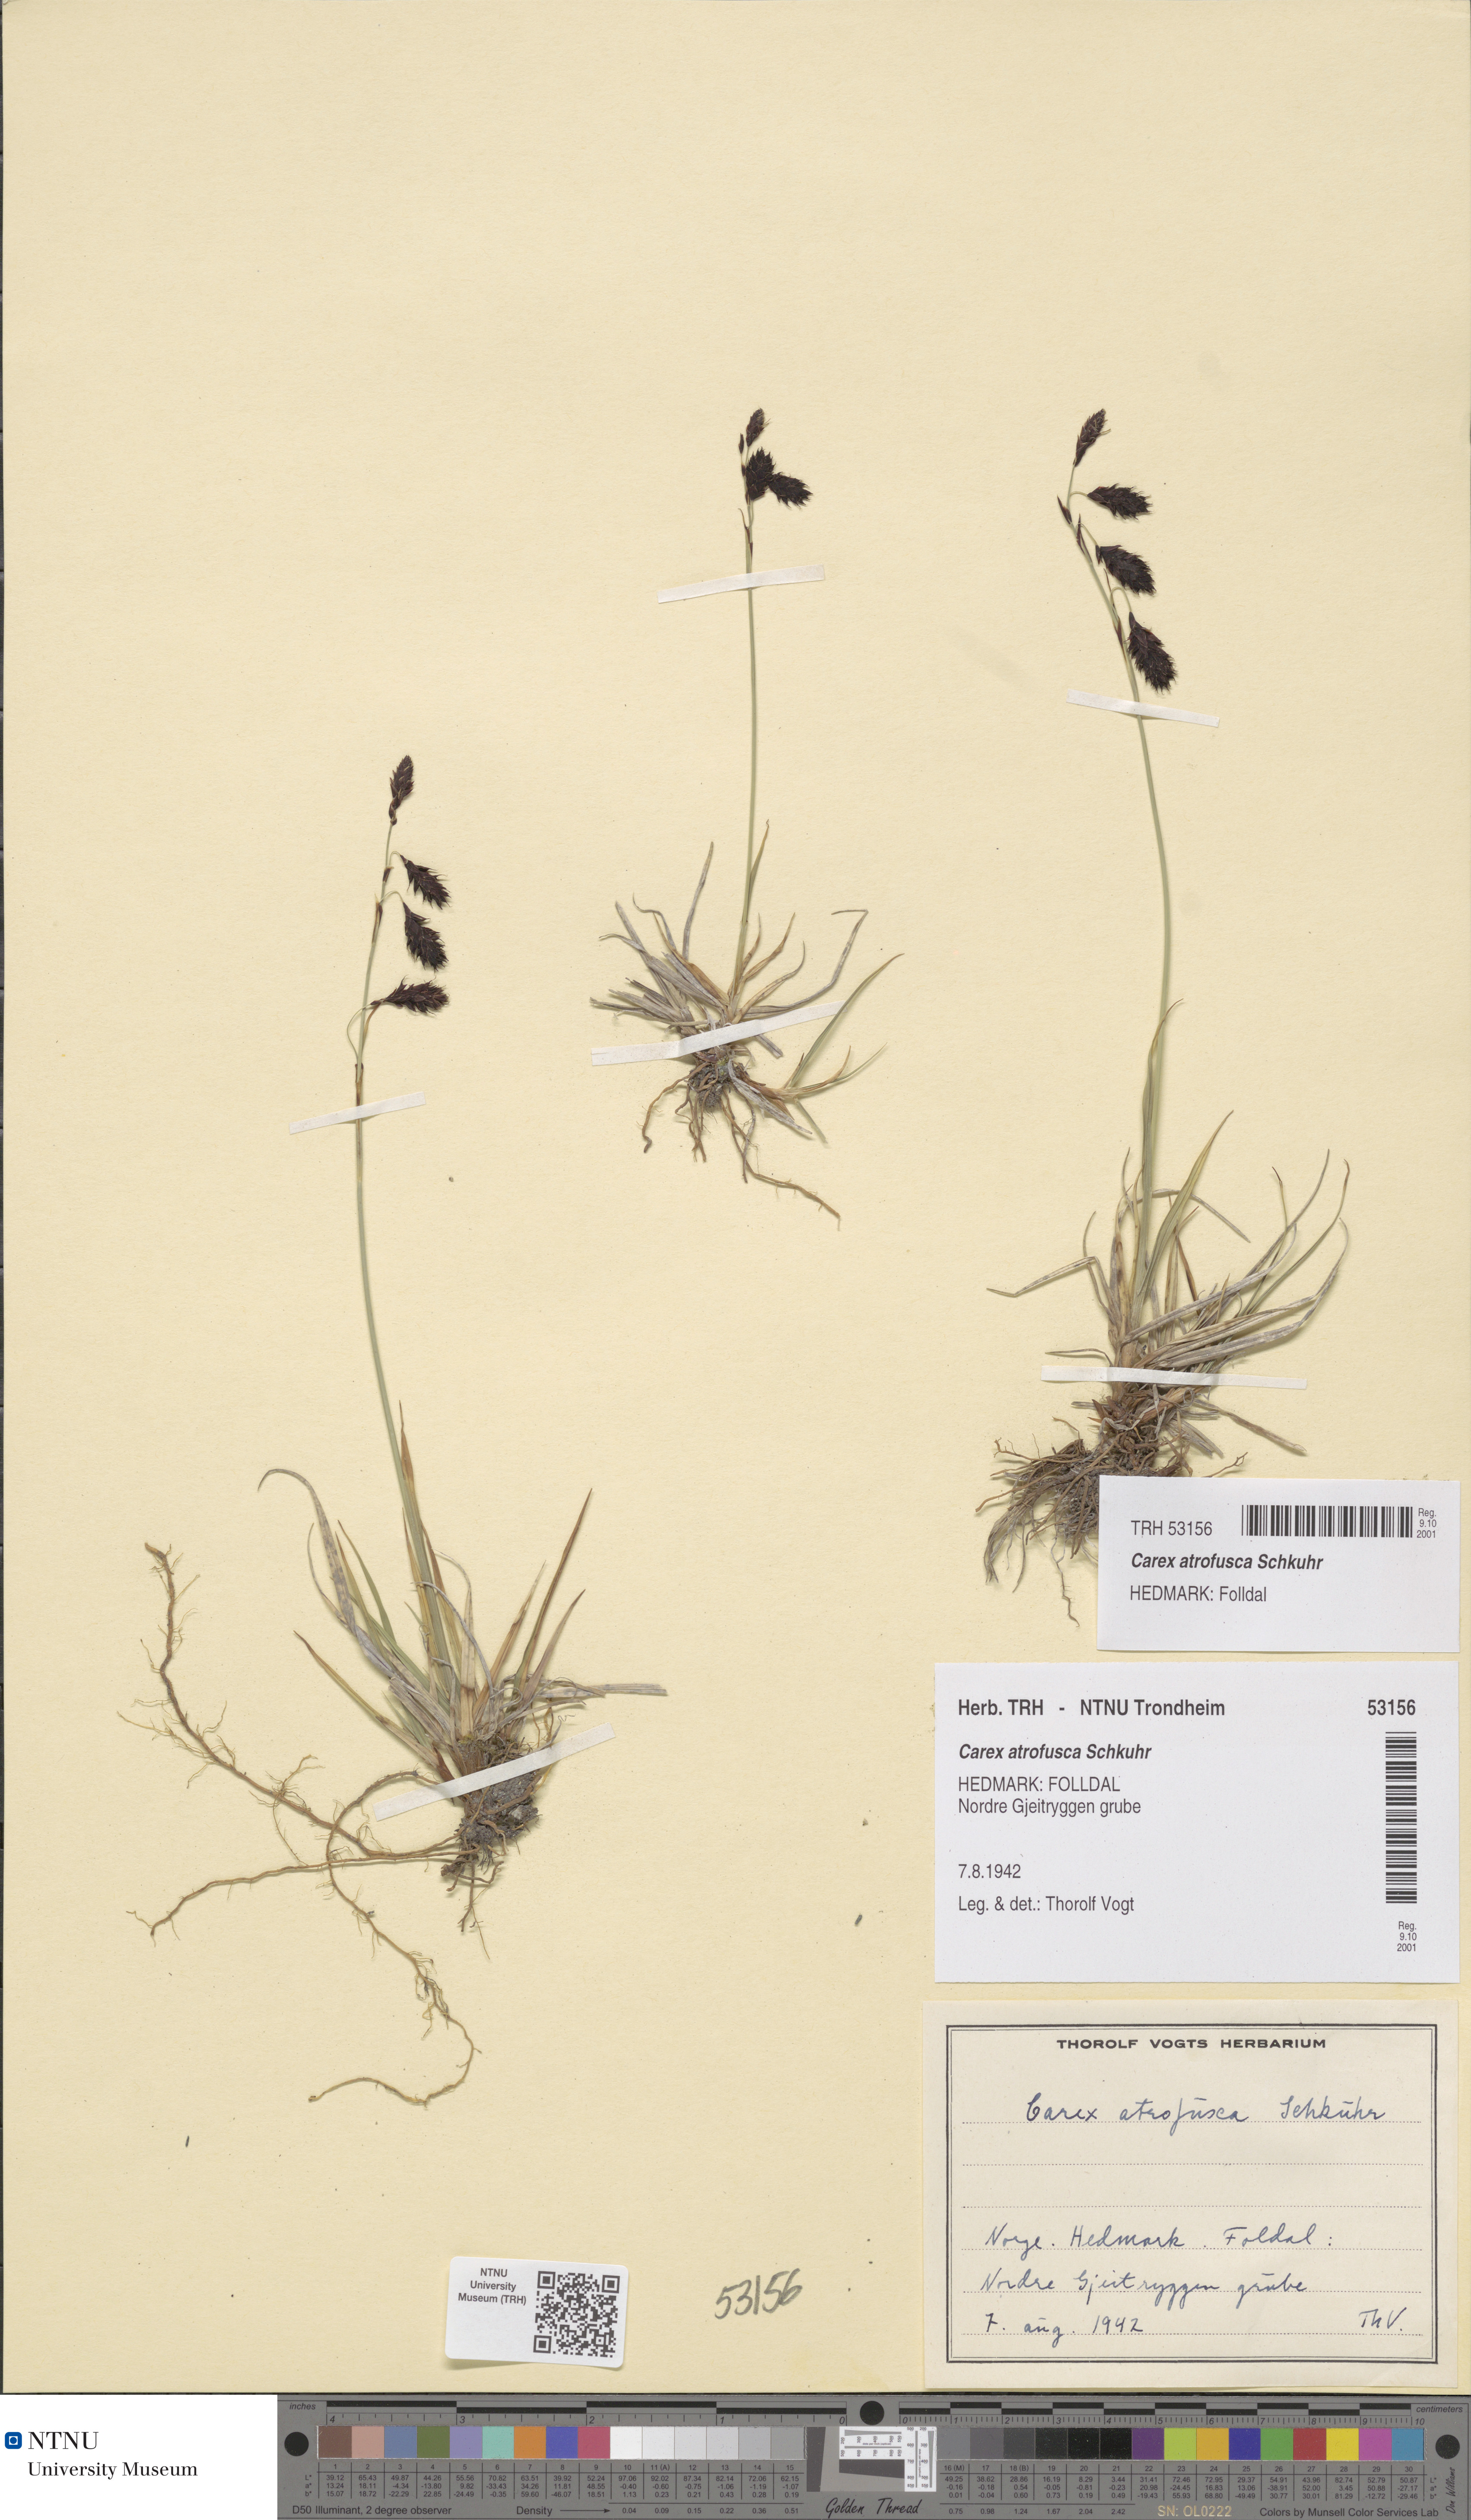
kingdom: Plantae
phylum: Tracheophyta
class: Liliopsida
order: Poales
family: Cyperaceae
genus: Carex
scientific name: Carex atrofusca
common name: Scorched alpine-sedge
